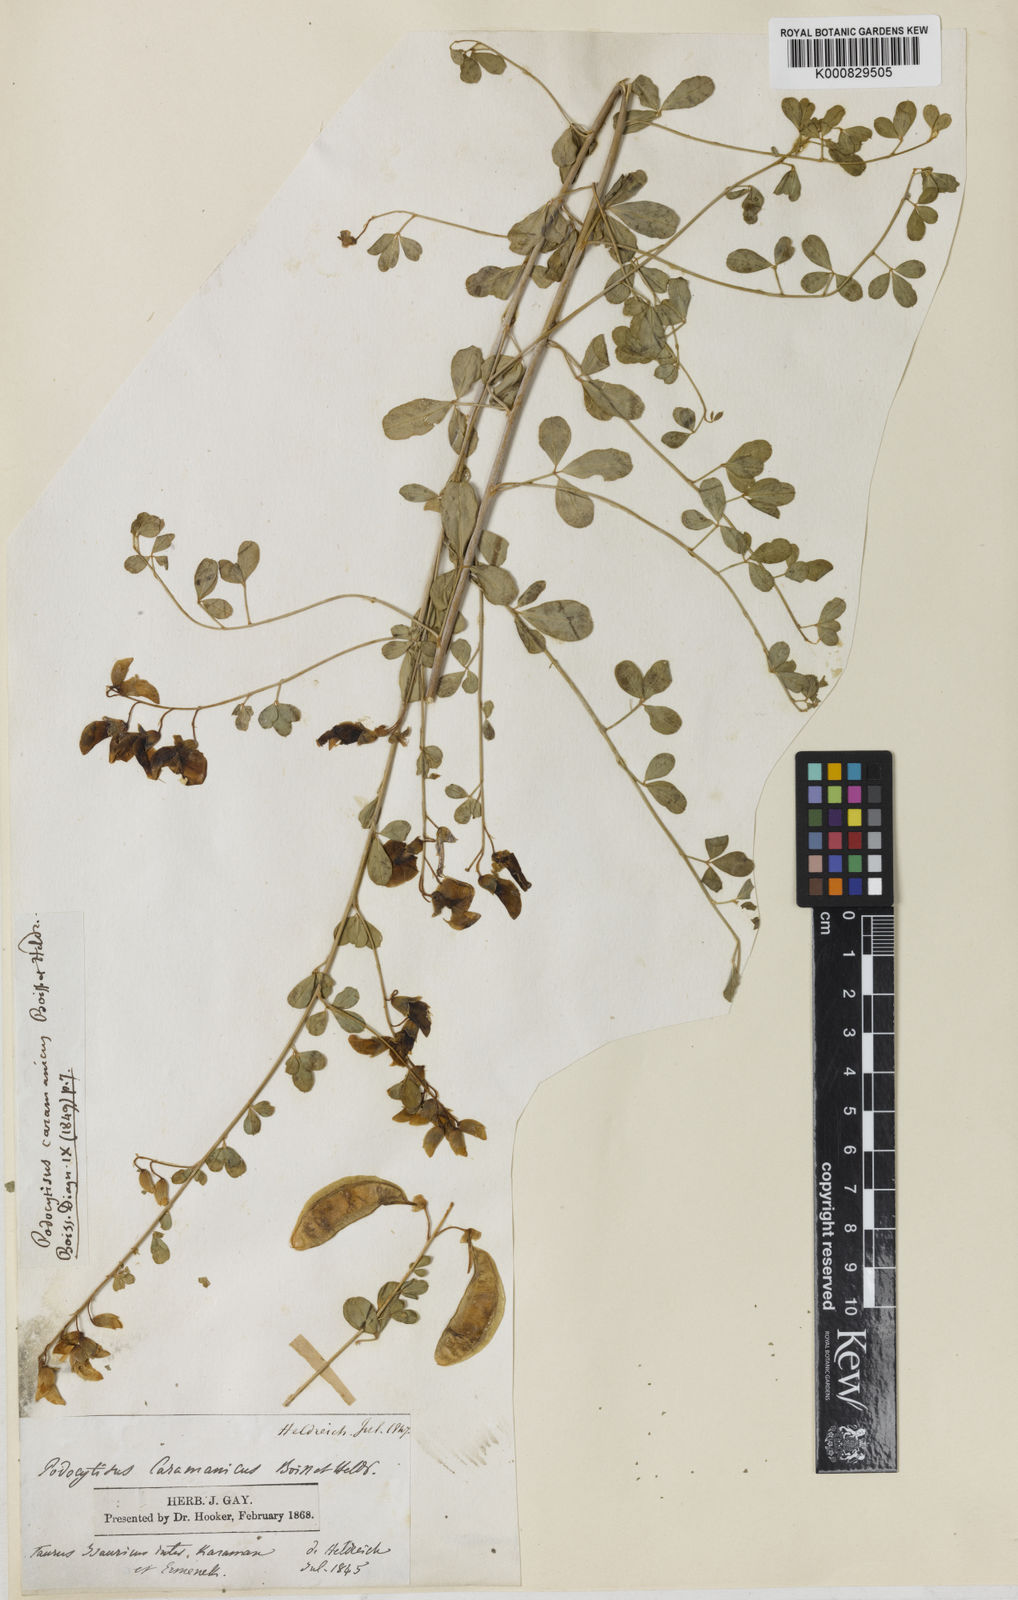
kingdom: Plantae
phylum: Tracheophyta
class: Magnoliopsida
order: Fabales
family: Fabaceae
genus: Podocytisus
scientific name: Podocytisus caramanicus
